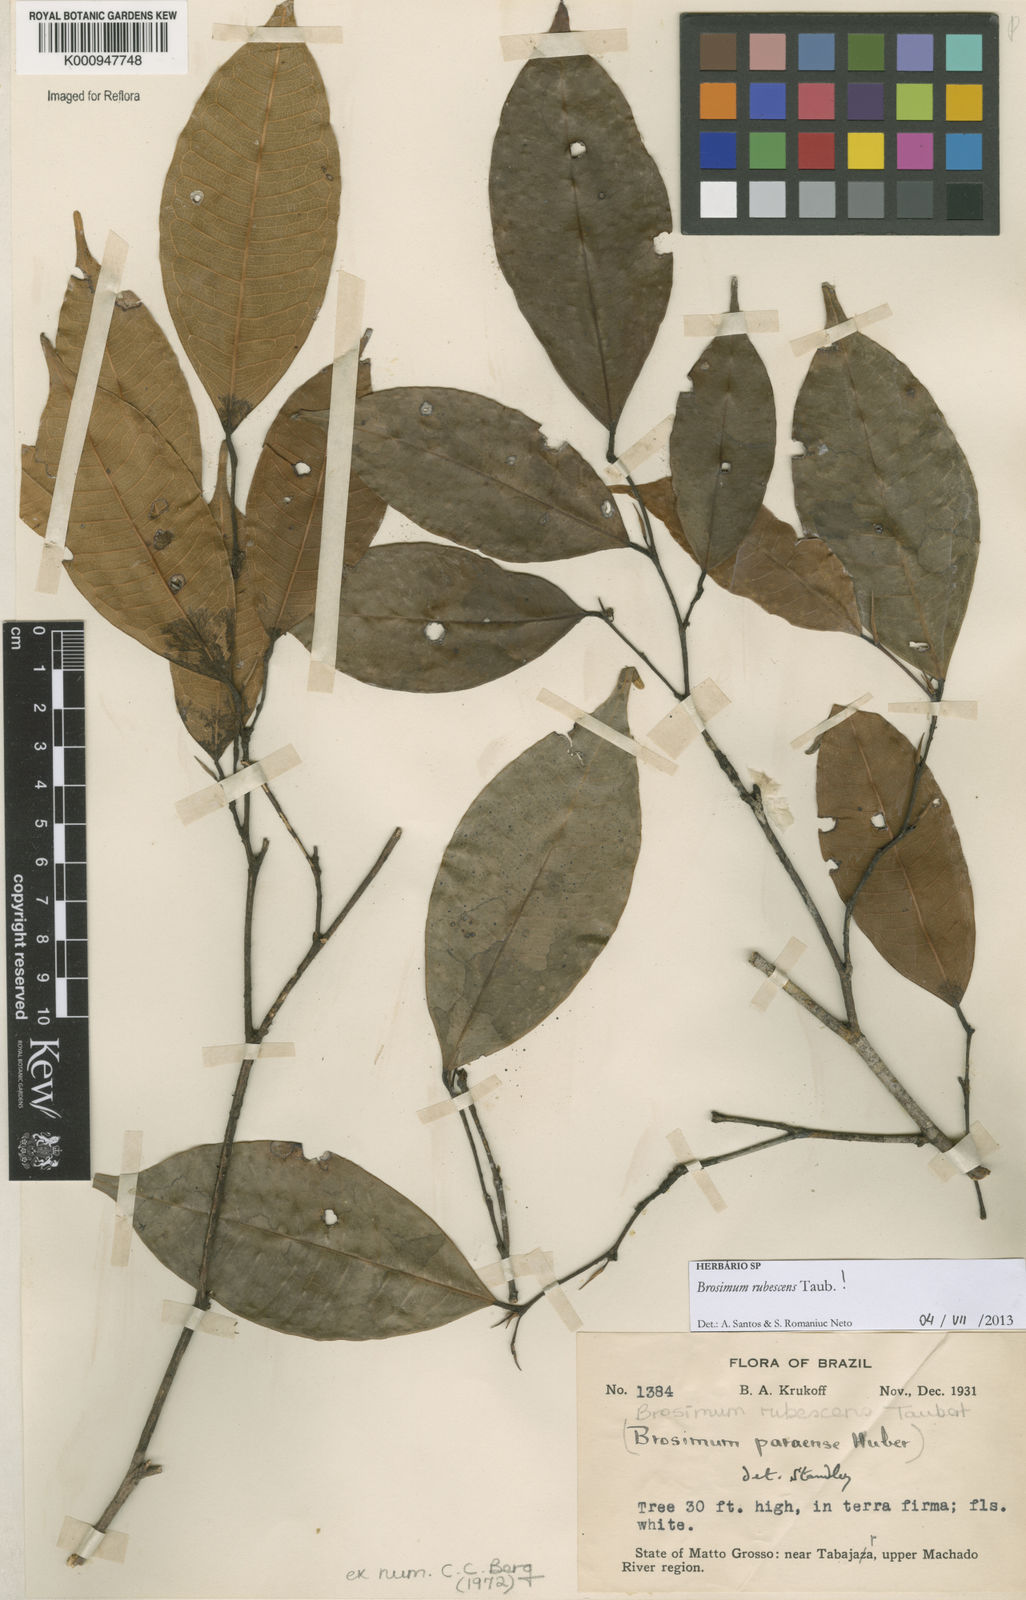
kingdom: Plantae
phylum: Tracheophyta
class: Magnoliopsida
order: Rosales
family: Moraceae
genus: Brosimum
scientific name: Brosimum rubescens
